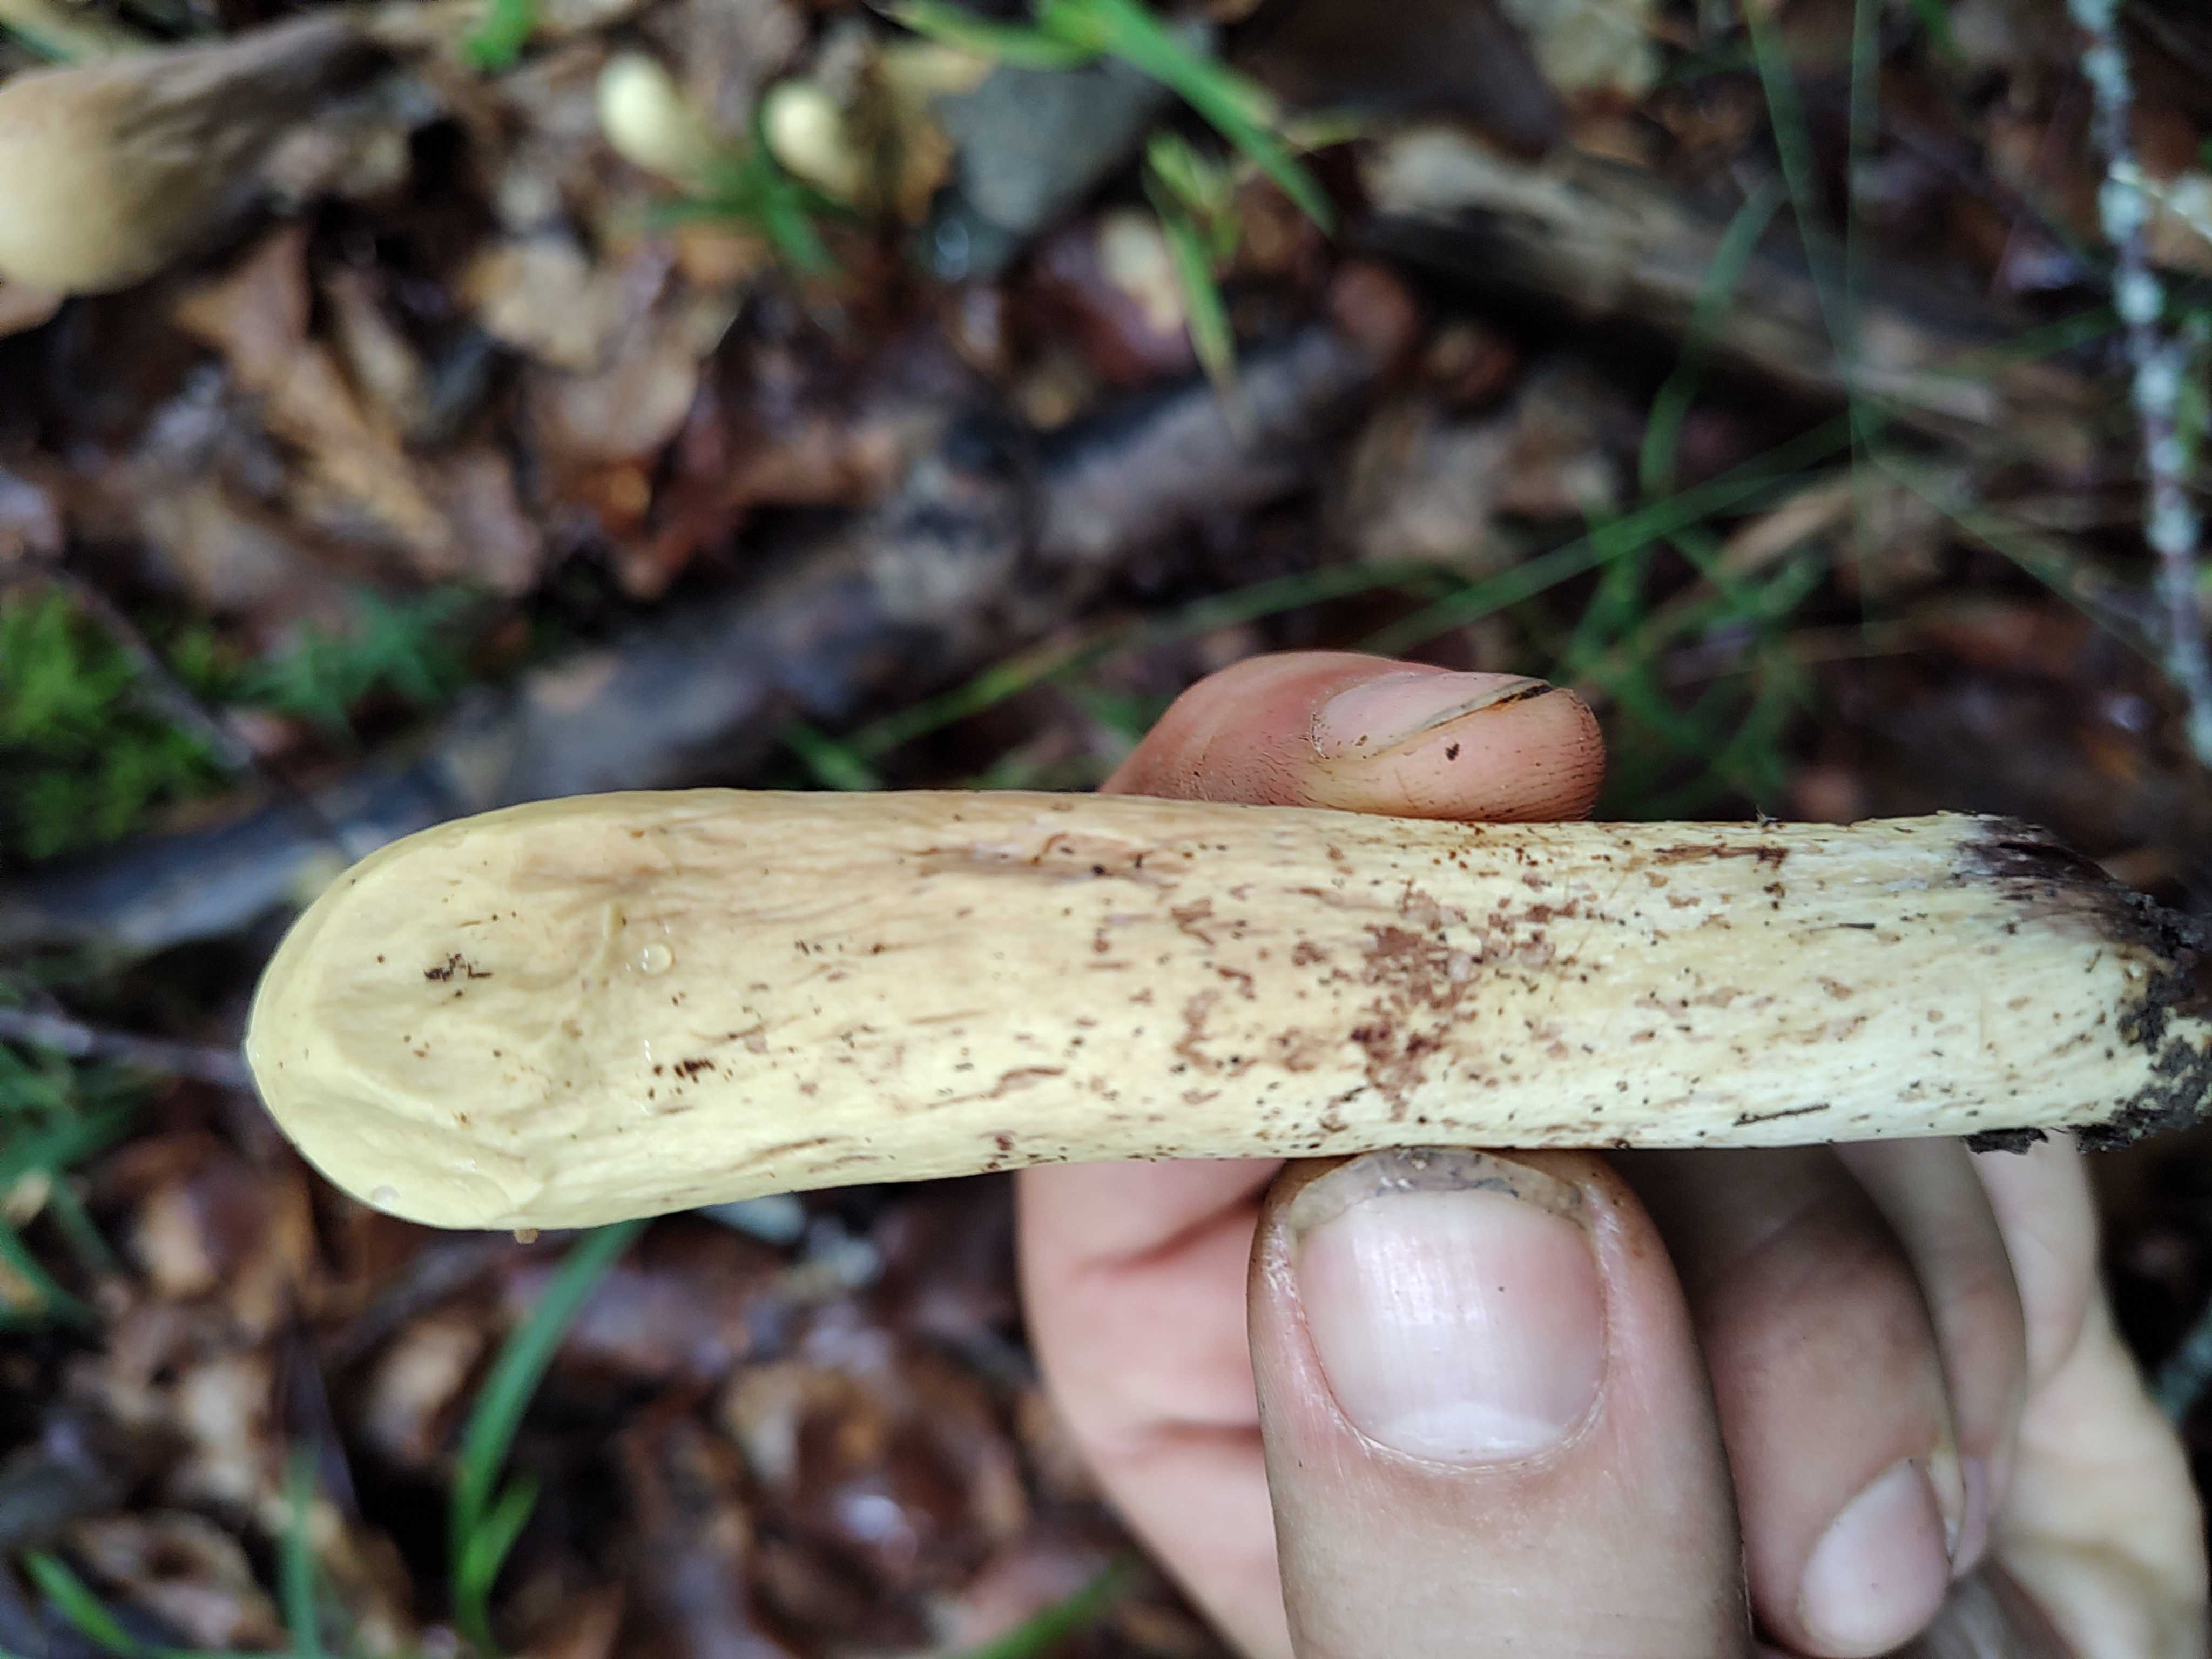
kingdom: Fungi
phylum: Basidiomycota
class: Agaricomycetes
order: Gomphales
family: Clavariadelphaceae
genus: Clavariadelphus
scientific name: Clavariadelphus pistillaris
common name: herkules-kæmpekølle
